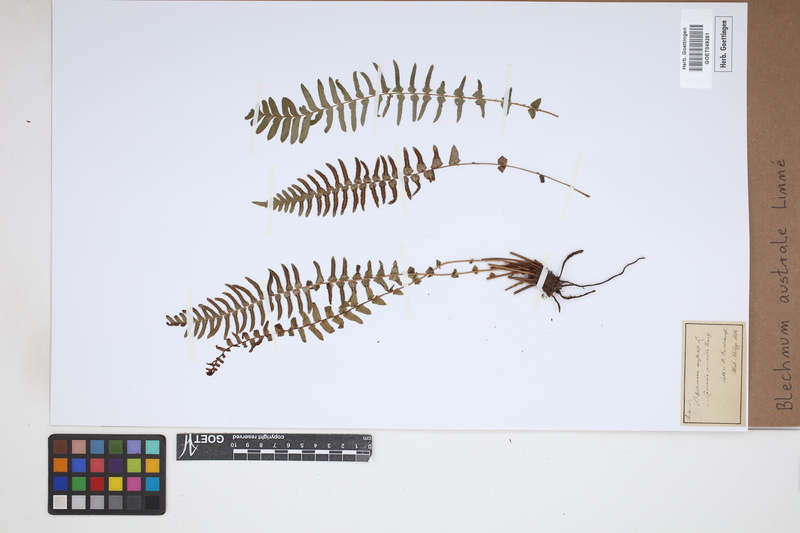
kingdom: Plantae
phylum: Tracheophyta
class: Polypodiopsida
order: Polypodiales
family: Blechnaceae
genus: Blechnum
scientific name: Blechnum australe
